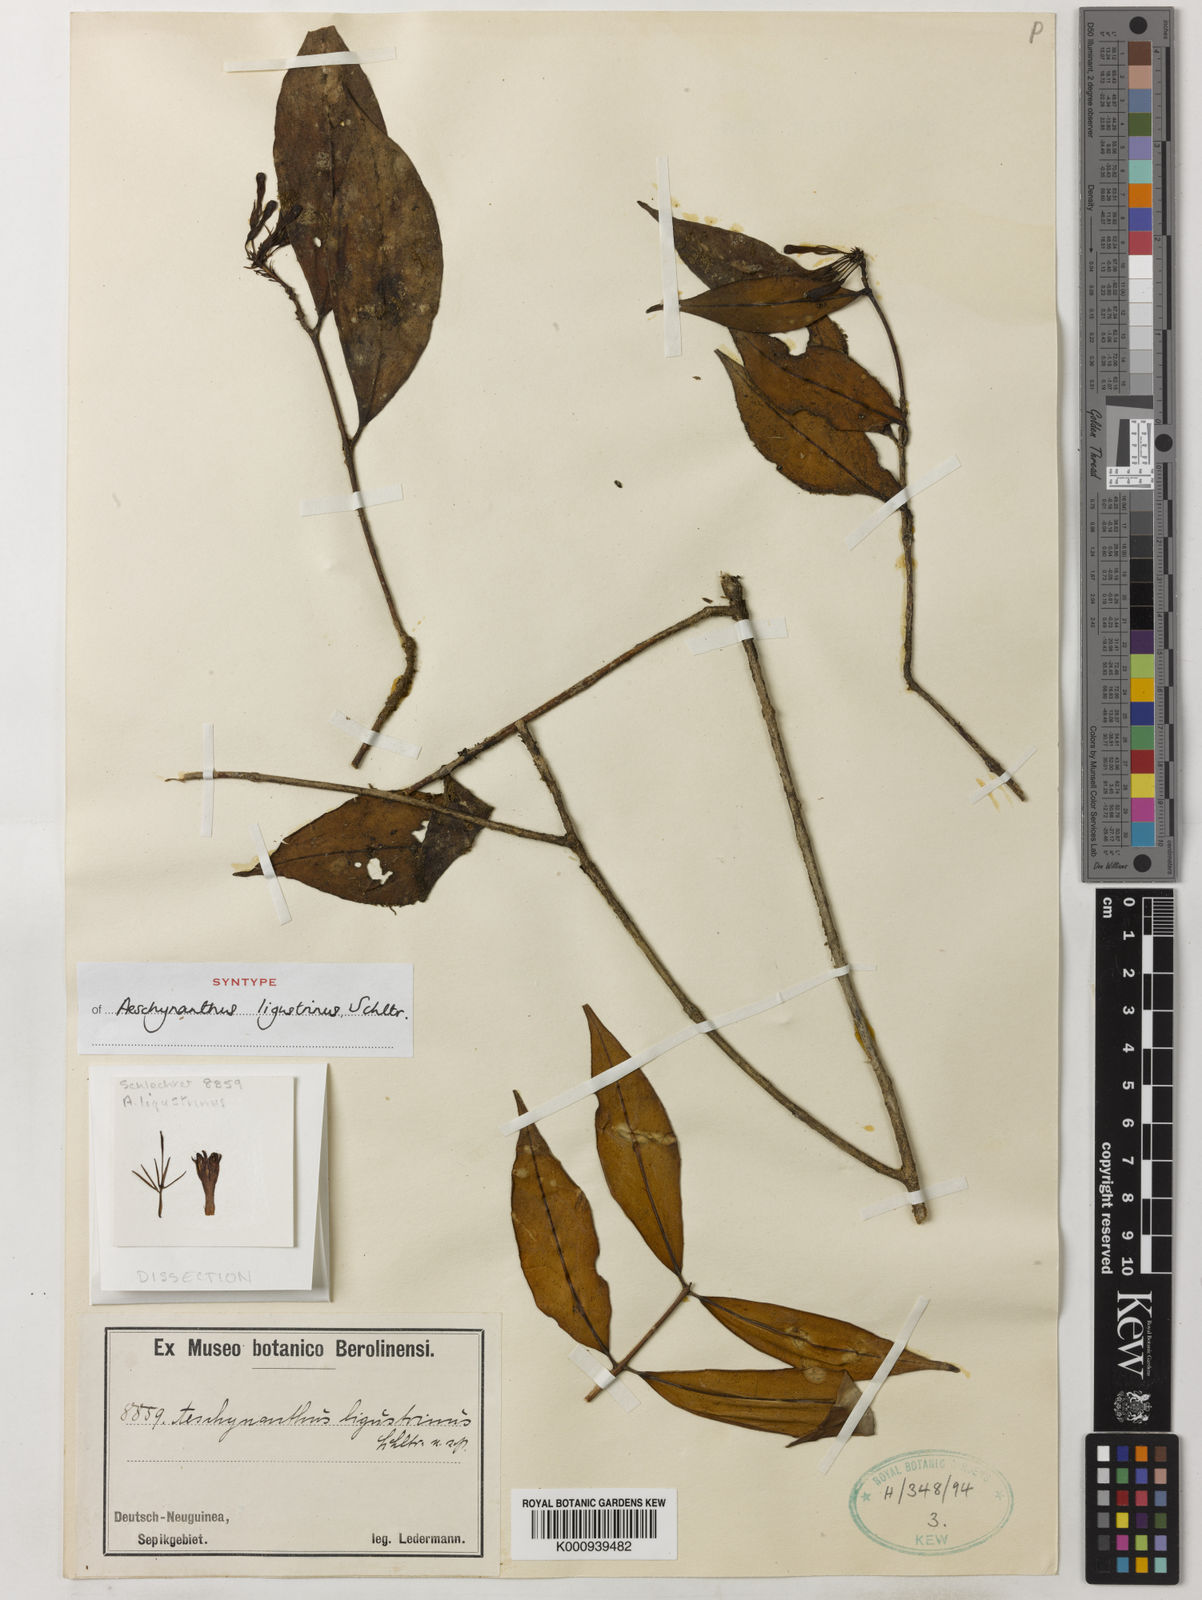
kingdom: Plantae
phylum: Tracheophyta
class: Magnoliopsida
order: Lamiales
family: Gesneriaceae
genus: Aeschynanthus
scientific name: Aeschynanthus ligustrinus
